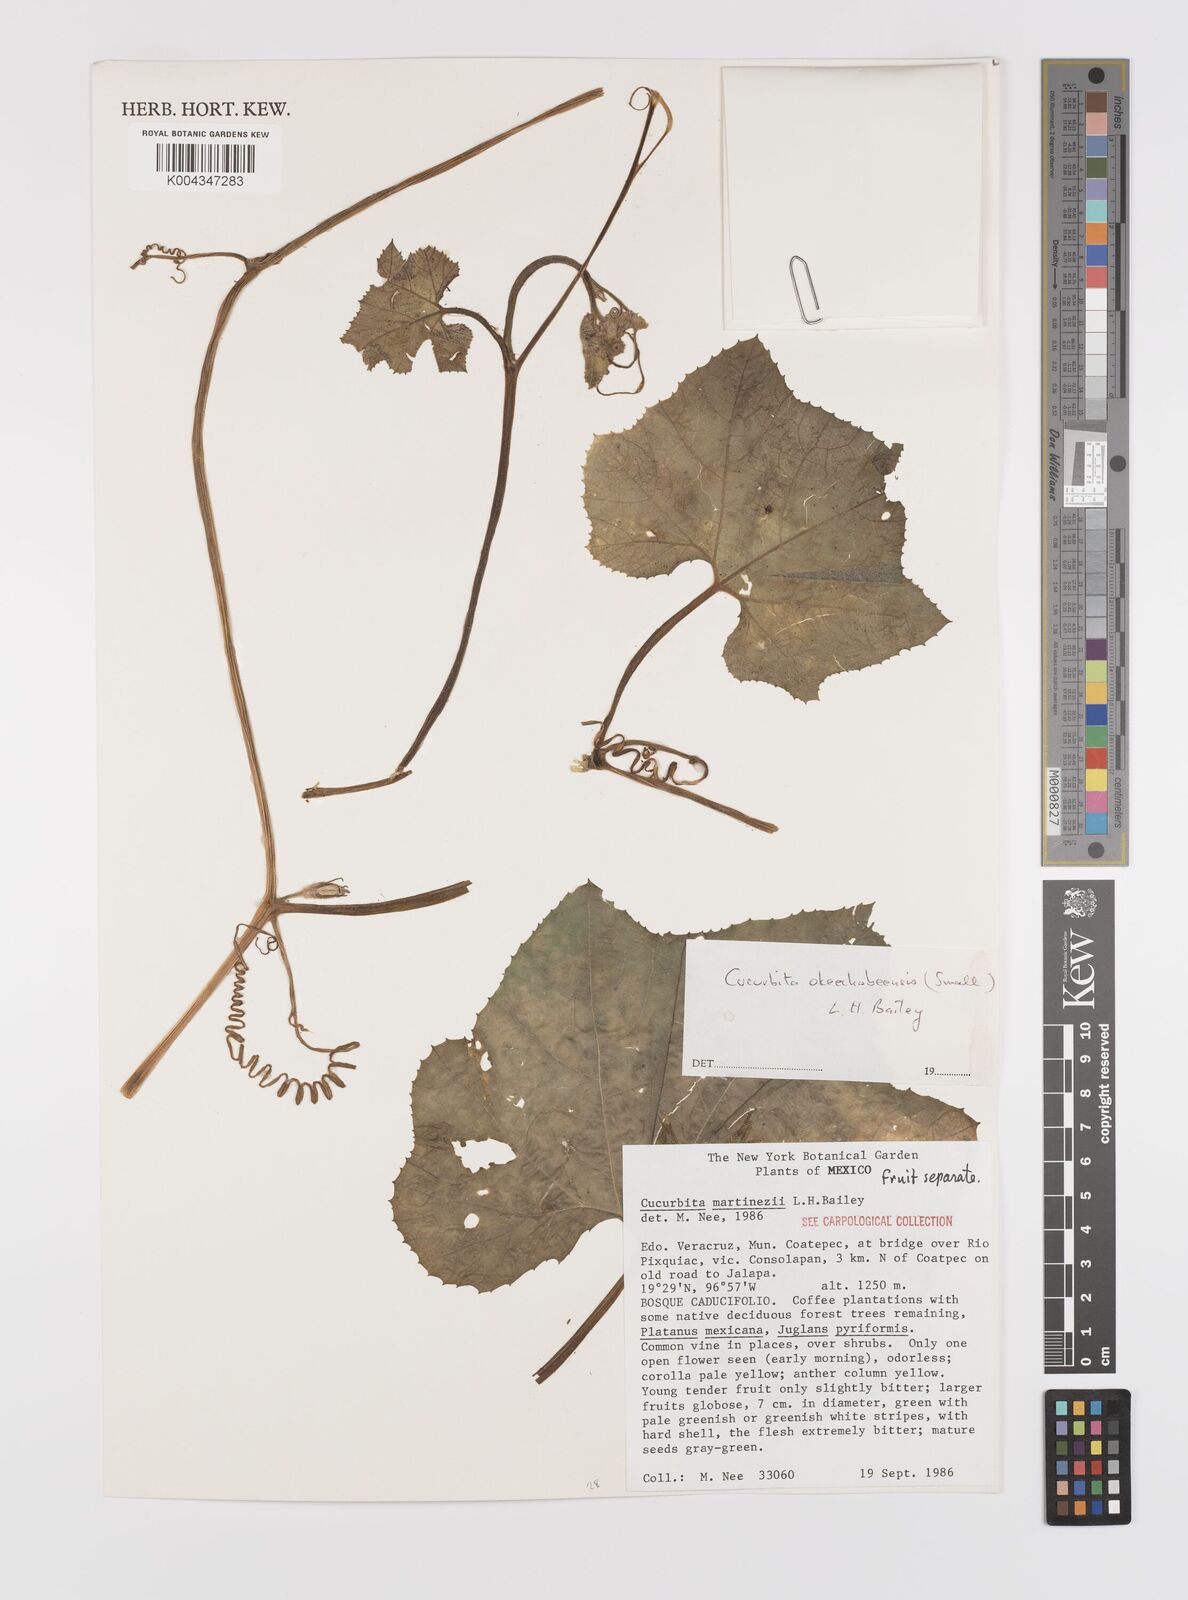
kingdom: Plantae
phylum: Tracheophyta
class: Magnoliopsida
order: Cucurbitales
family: Cucurbitaceae
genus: Cucurbita
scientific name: Cucurbita okeechobeensis
